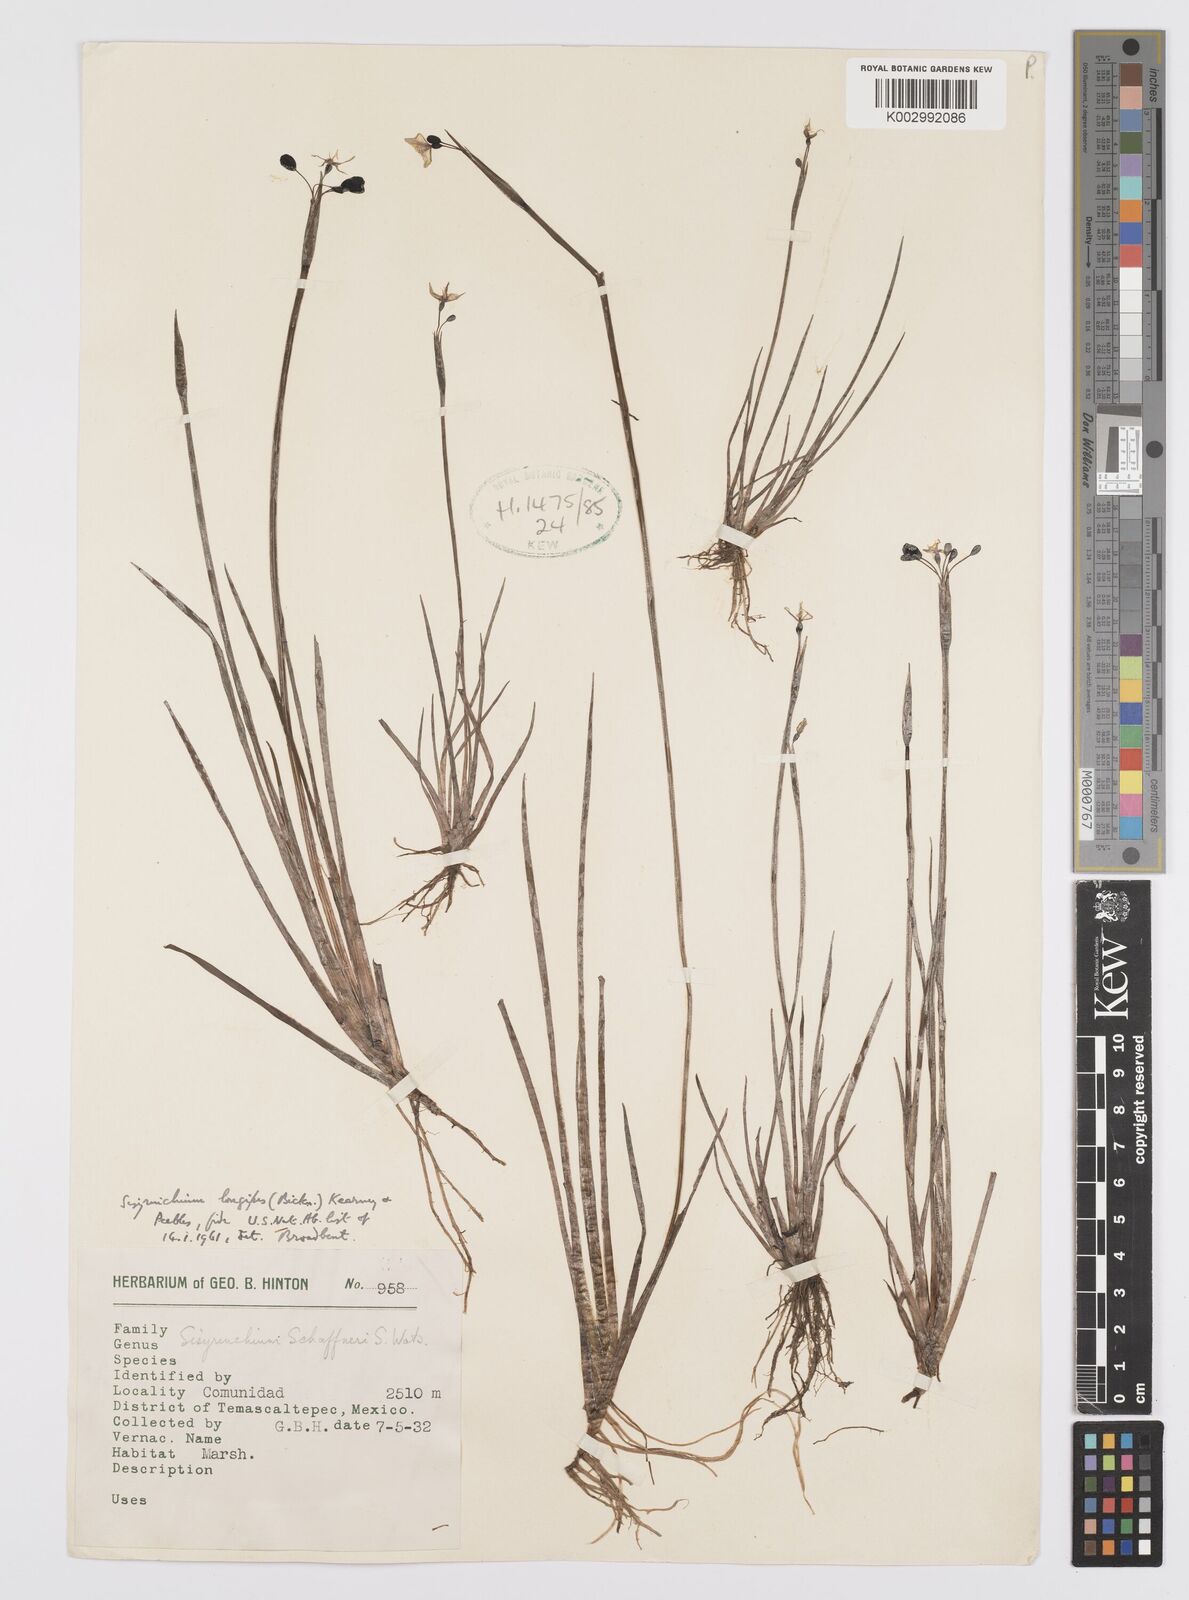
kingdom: Plantae
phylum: Tracheophyta
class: Liliopsida
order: Asparagales
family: Iridaceae
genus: Sisyrinchium
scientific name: Sisyrinchium schaffneri
